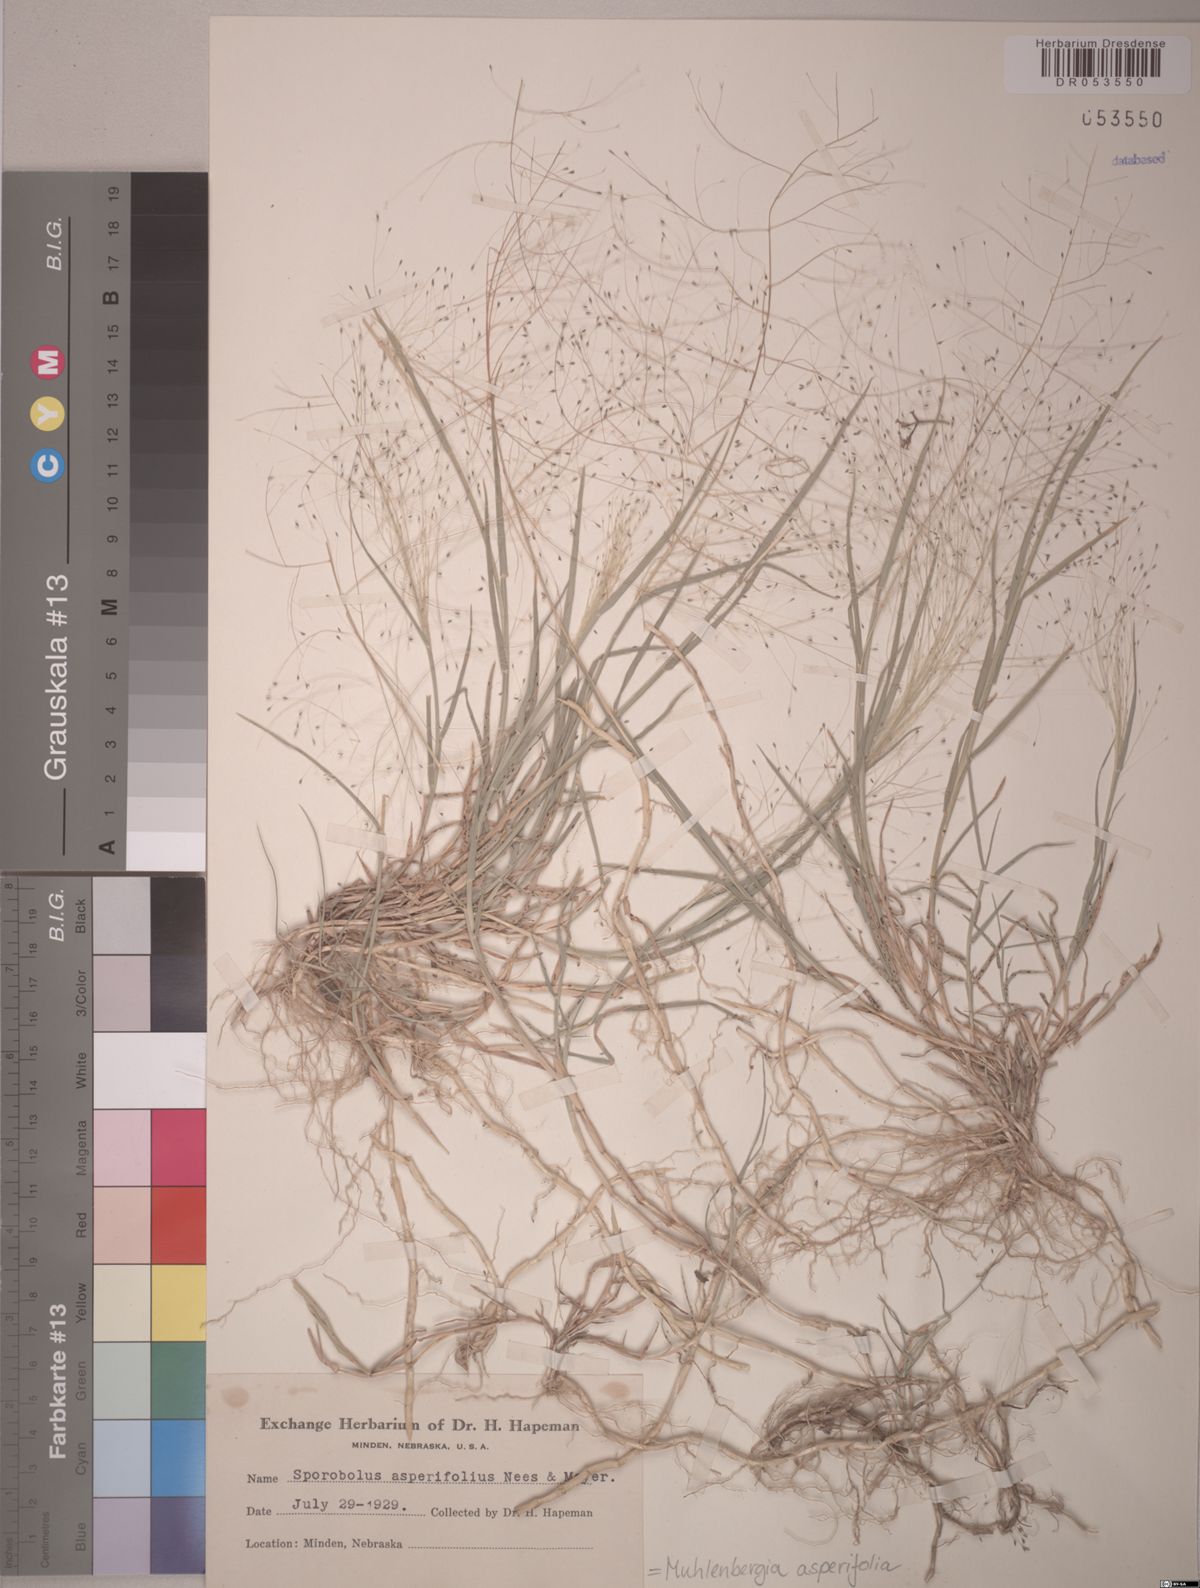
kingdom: Plantae
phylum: Tracheophyta
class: Liliopsida
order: Poales
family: Poaceae
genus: Muhlenbergia
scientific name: Muhlenbergia asperifolia
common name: Alkali muhly
